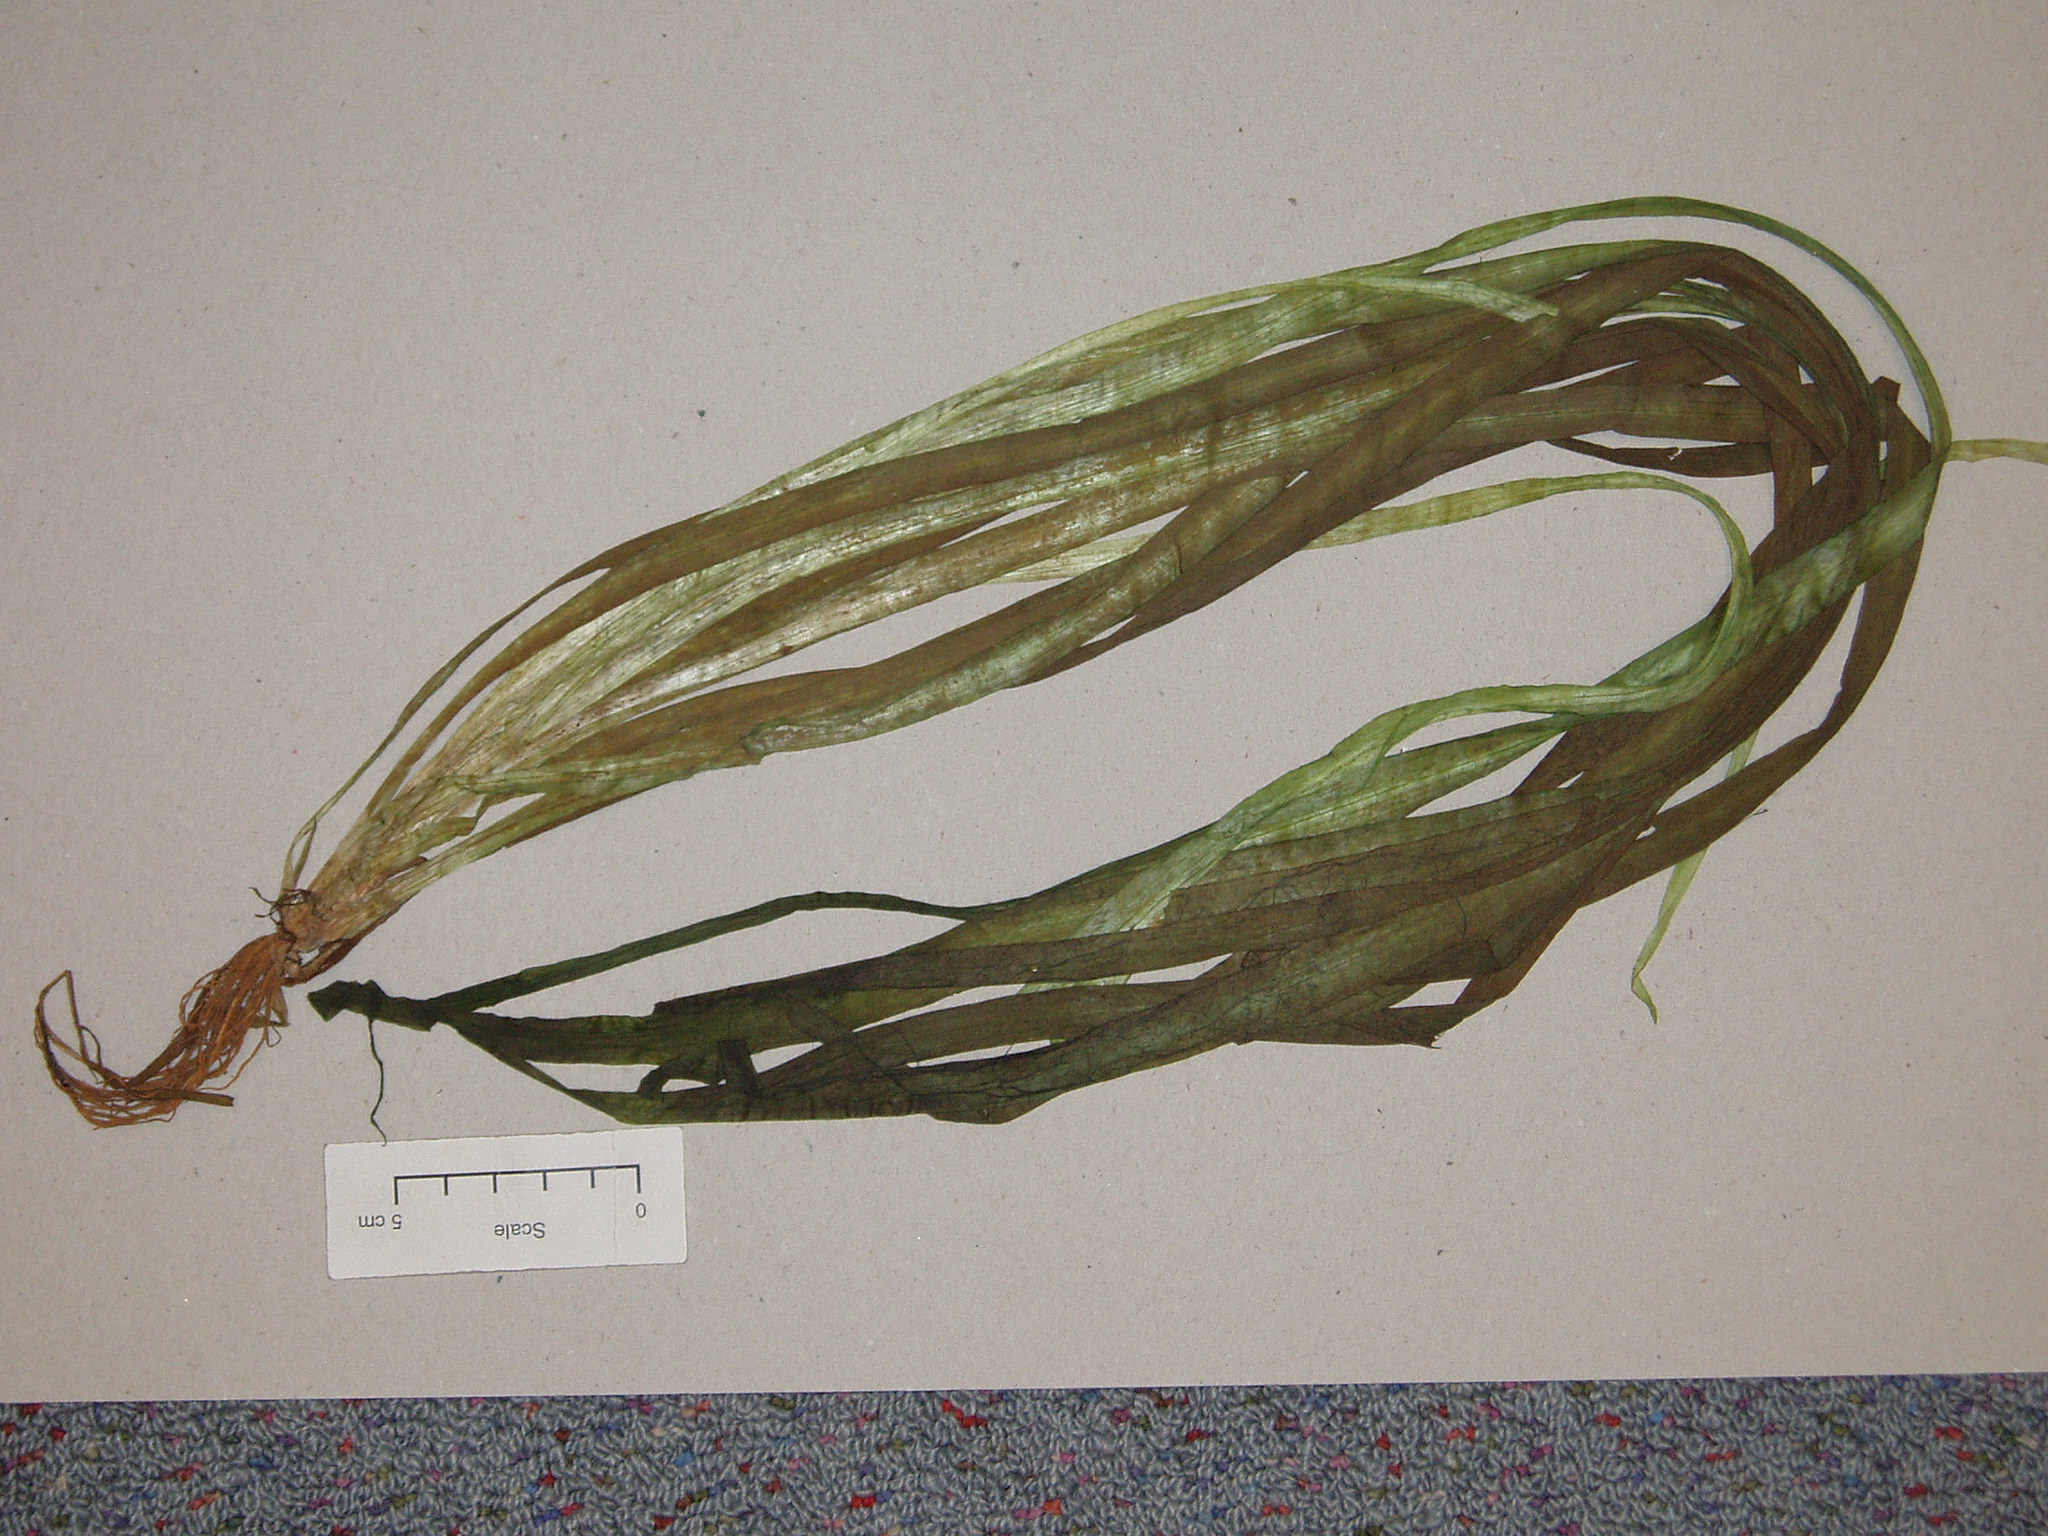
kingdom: Plantae
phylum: Tracheophyta
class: Liliopsida
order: Alismatales
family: Hydrocharitaceae
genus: Ottelia
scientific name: Ottelia ovalifolia
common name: Swamp-lily
